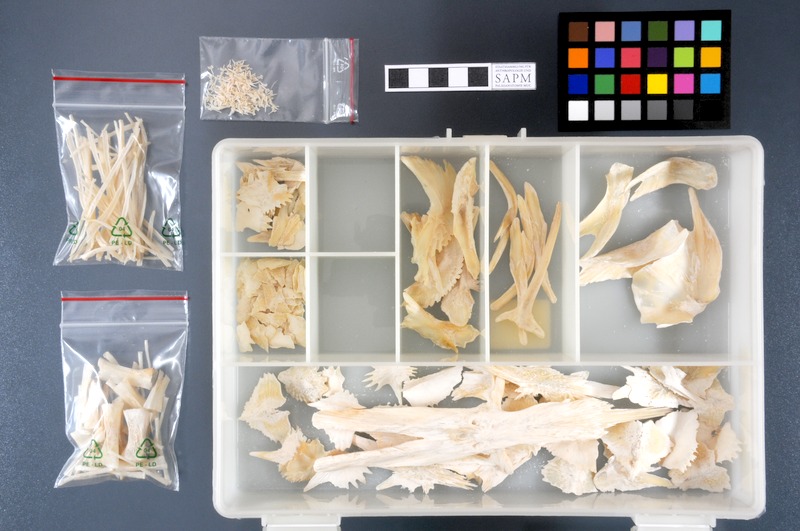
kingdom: Animalia
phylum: Chordata
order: Acipenseriformes
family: Acipenseridae
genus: Huso
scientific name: Huso huso
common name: Beluga
